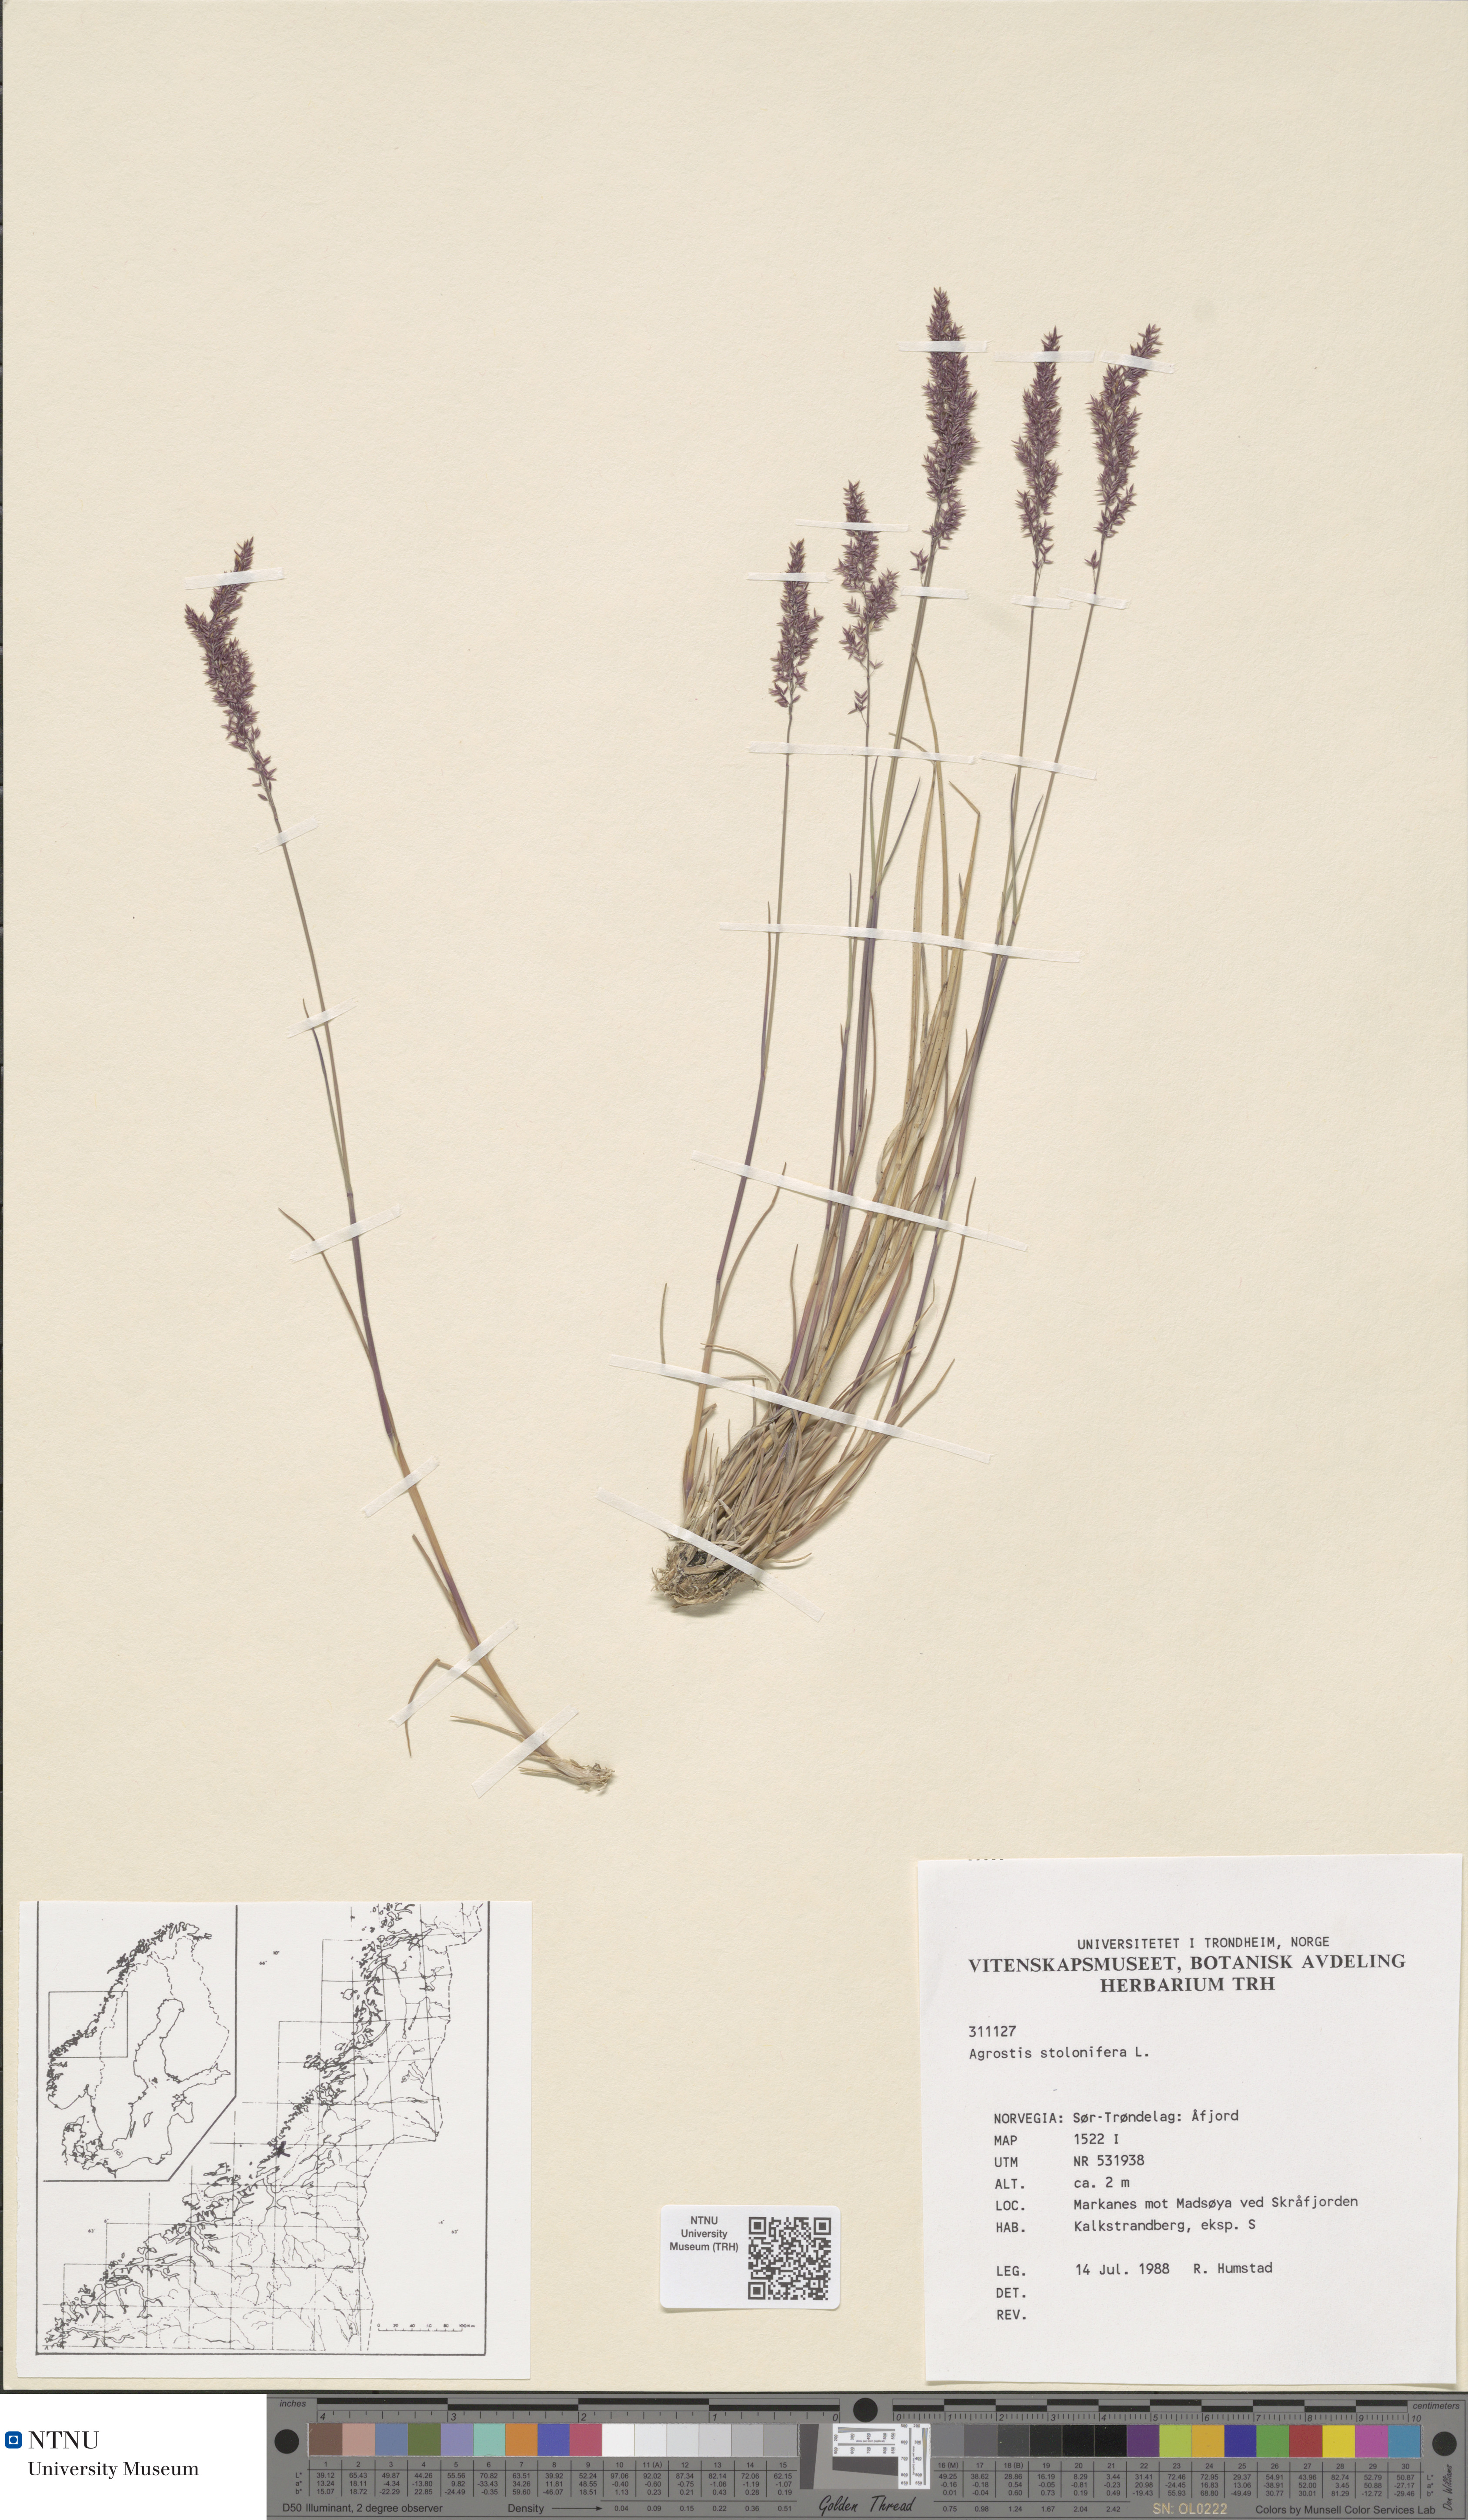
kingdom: Plantae
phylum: Tracheophyta
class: Liliopsida
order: Poales
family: Poaceae
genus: Agrostis
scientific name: Agrostis stolonifera
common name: Creeping bentgrass
